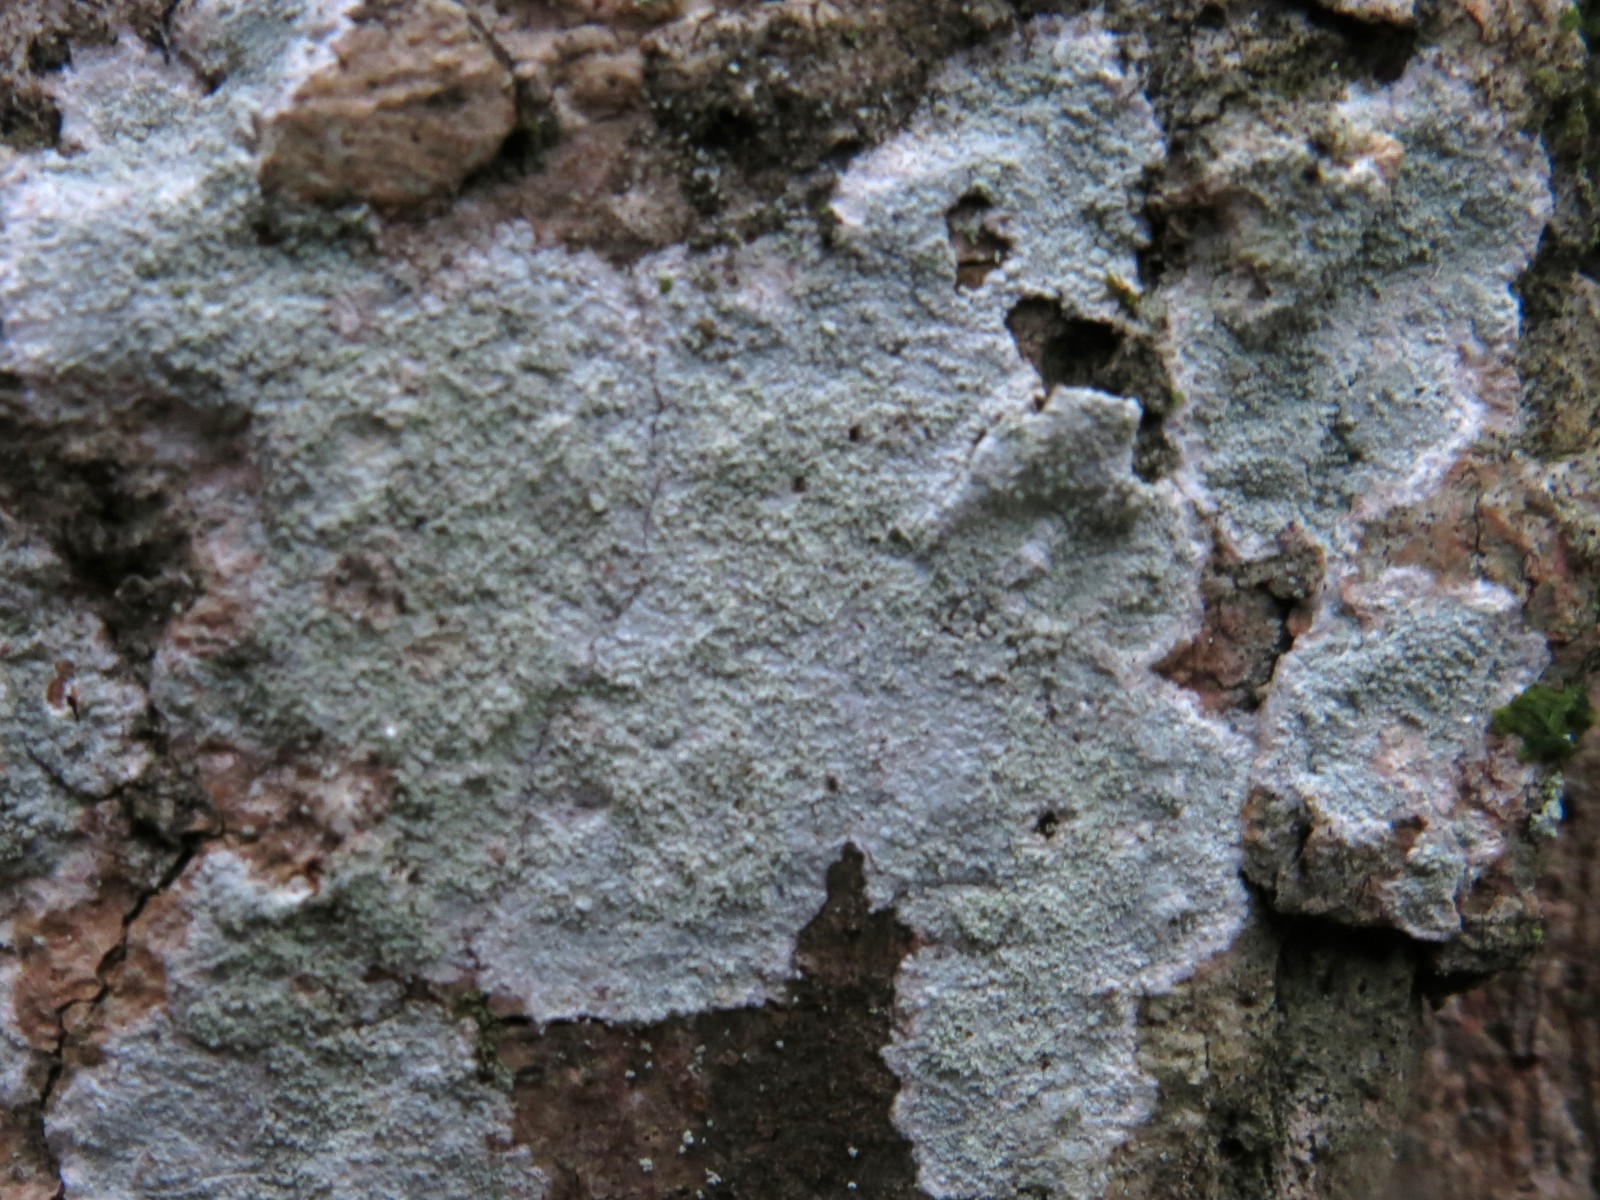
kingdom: Fungi
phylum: Ascomycota
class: Lecanoromycetes
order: Ostropales
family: Phlyctidaceae
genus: Phlyctis
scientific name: Phlyctis argena
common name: almindelig sølvlav
